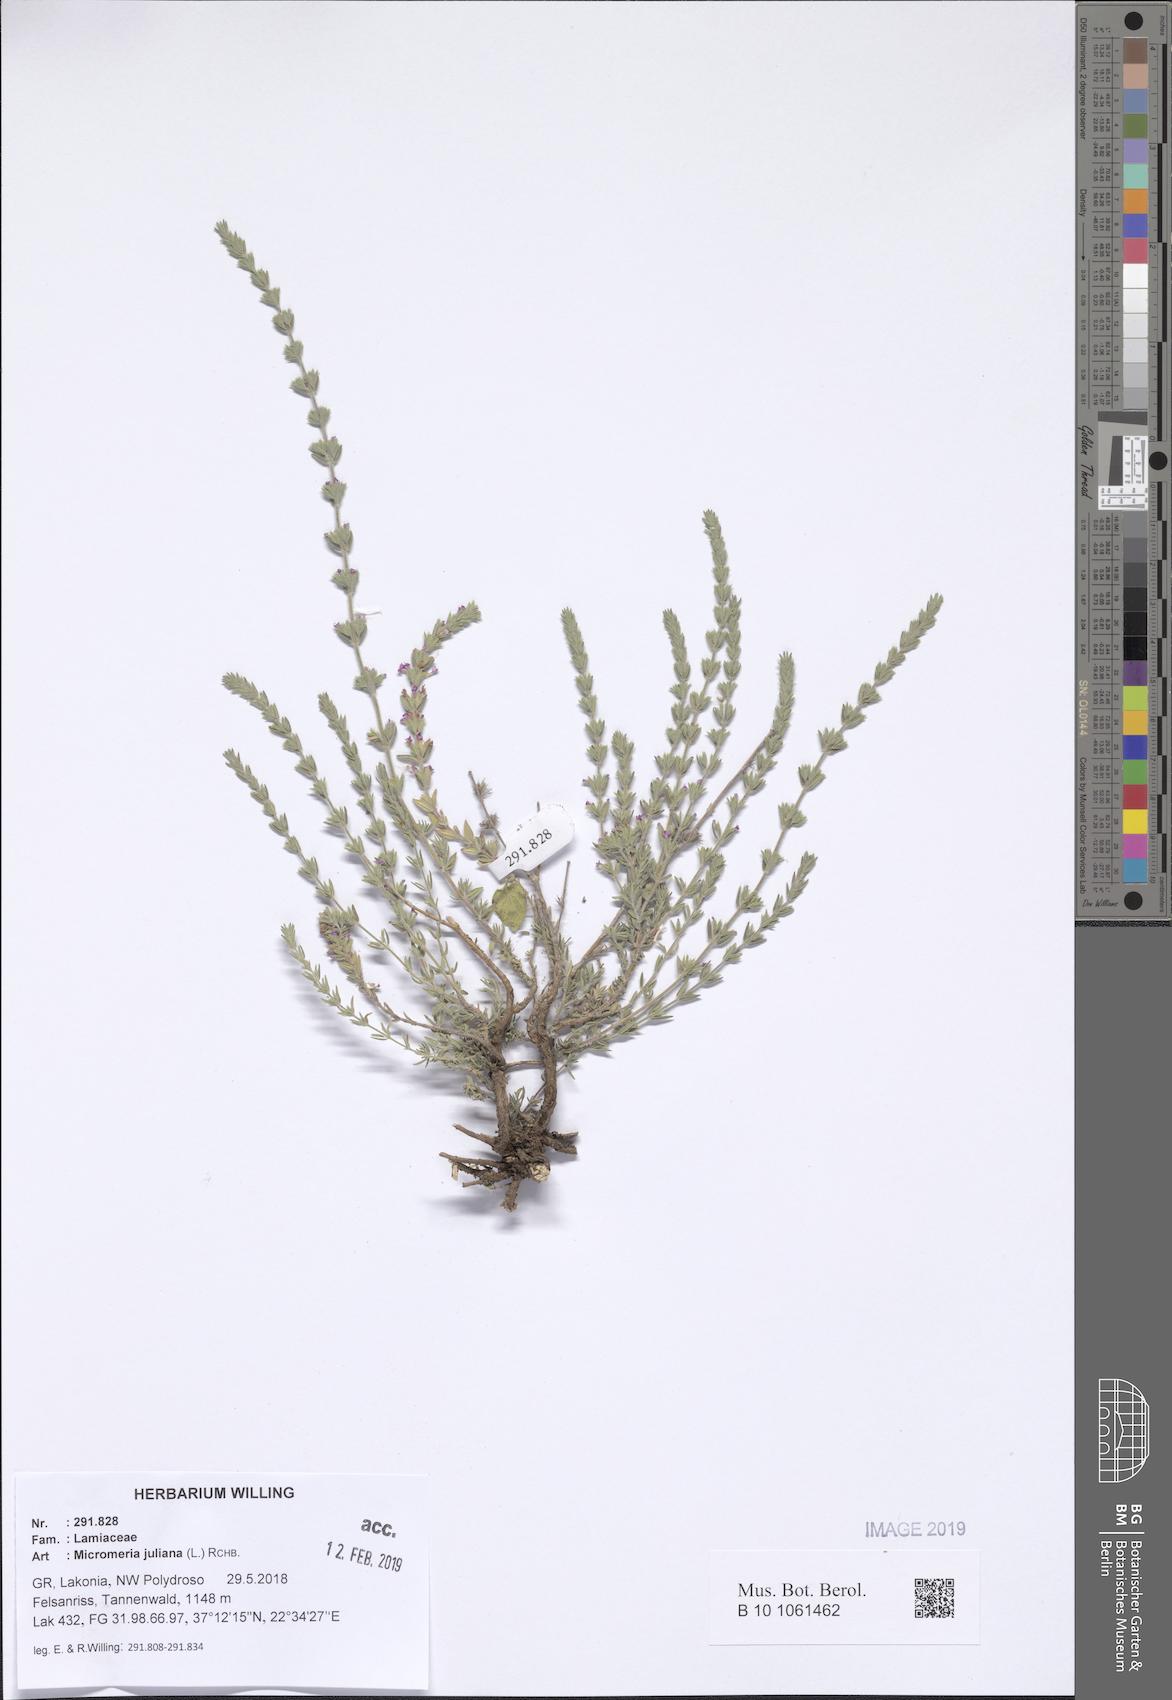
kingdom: Plantae
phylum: Tracheophyta
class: Magnoliopsida
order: Lamiales
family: Lamiaceae
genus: Micromeria
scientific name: Micromeria juliana
